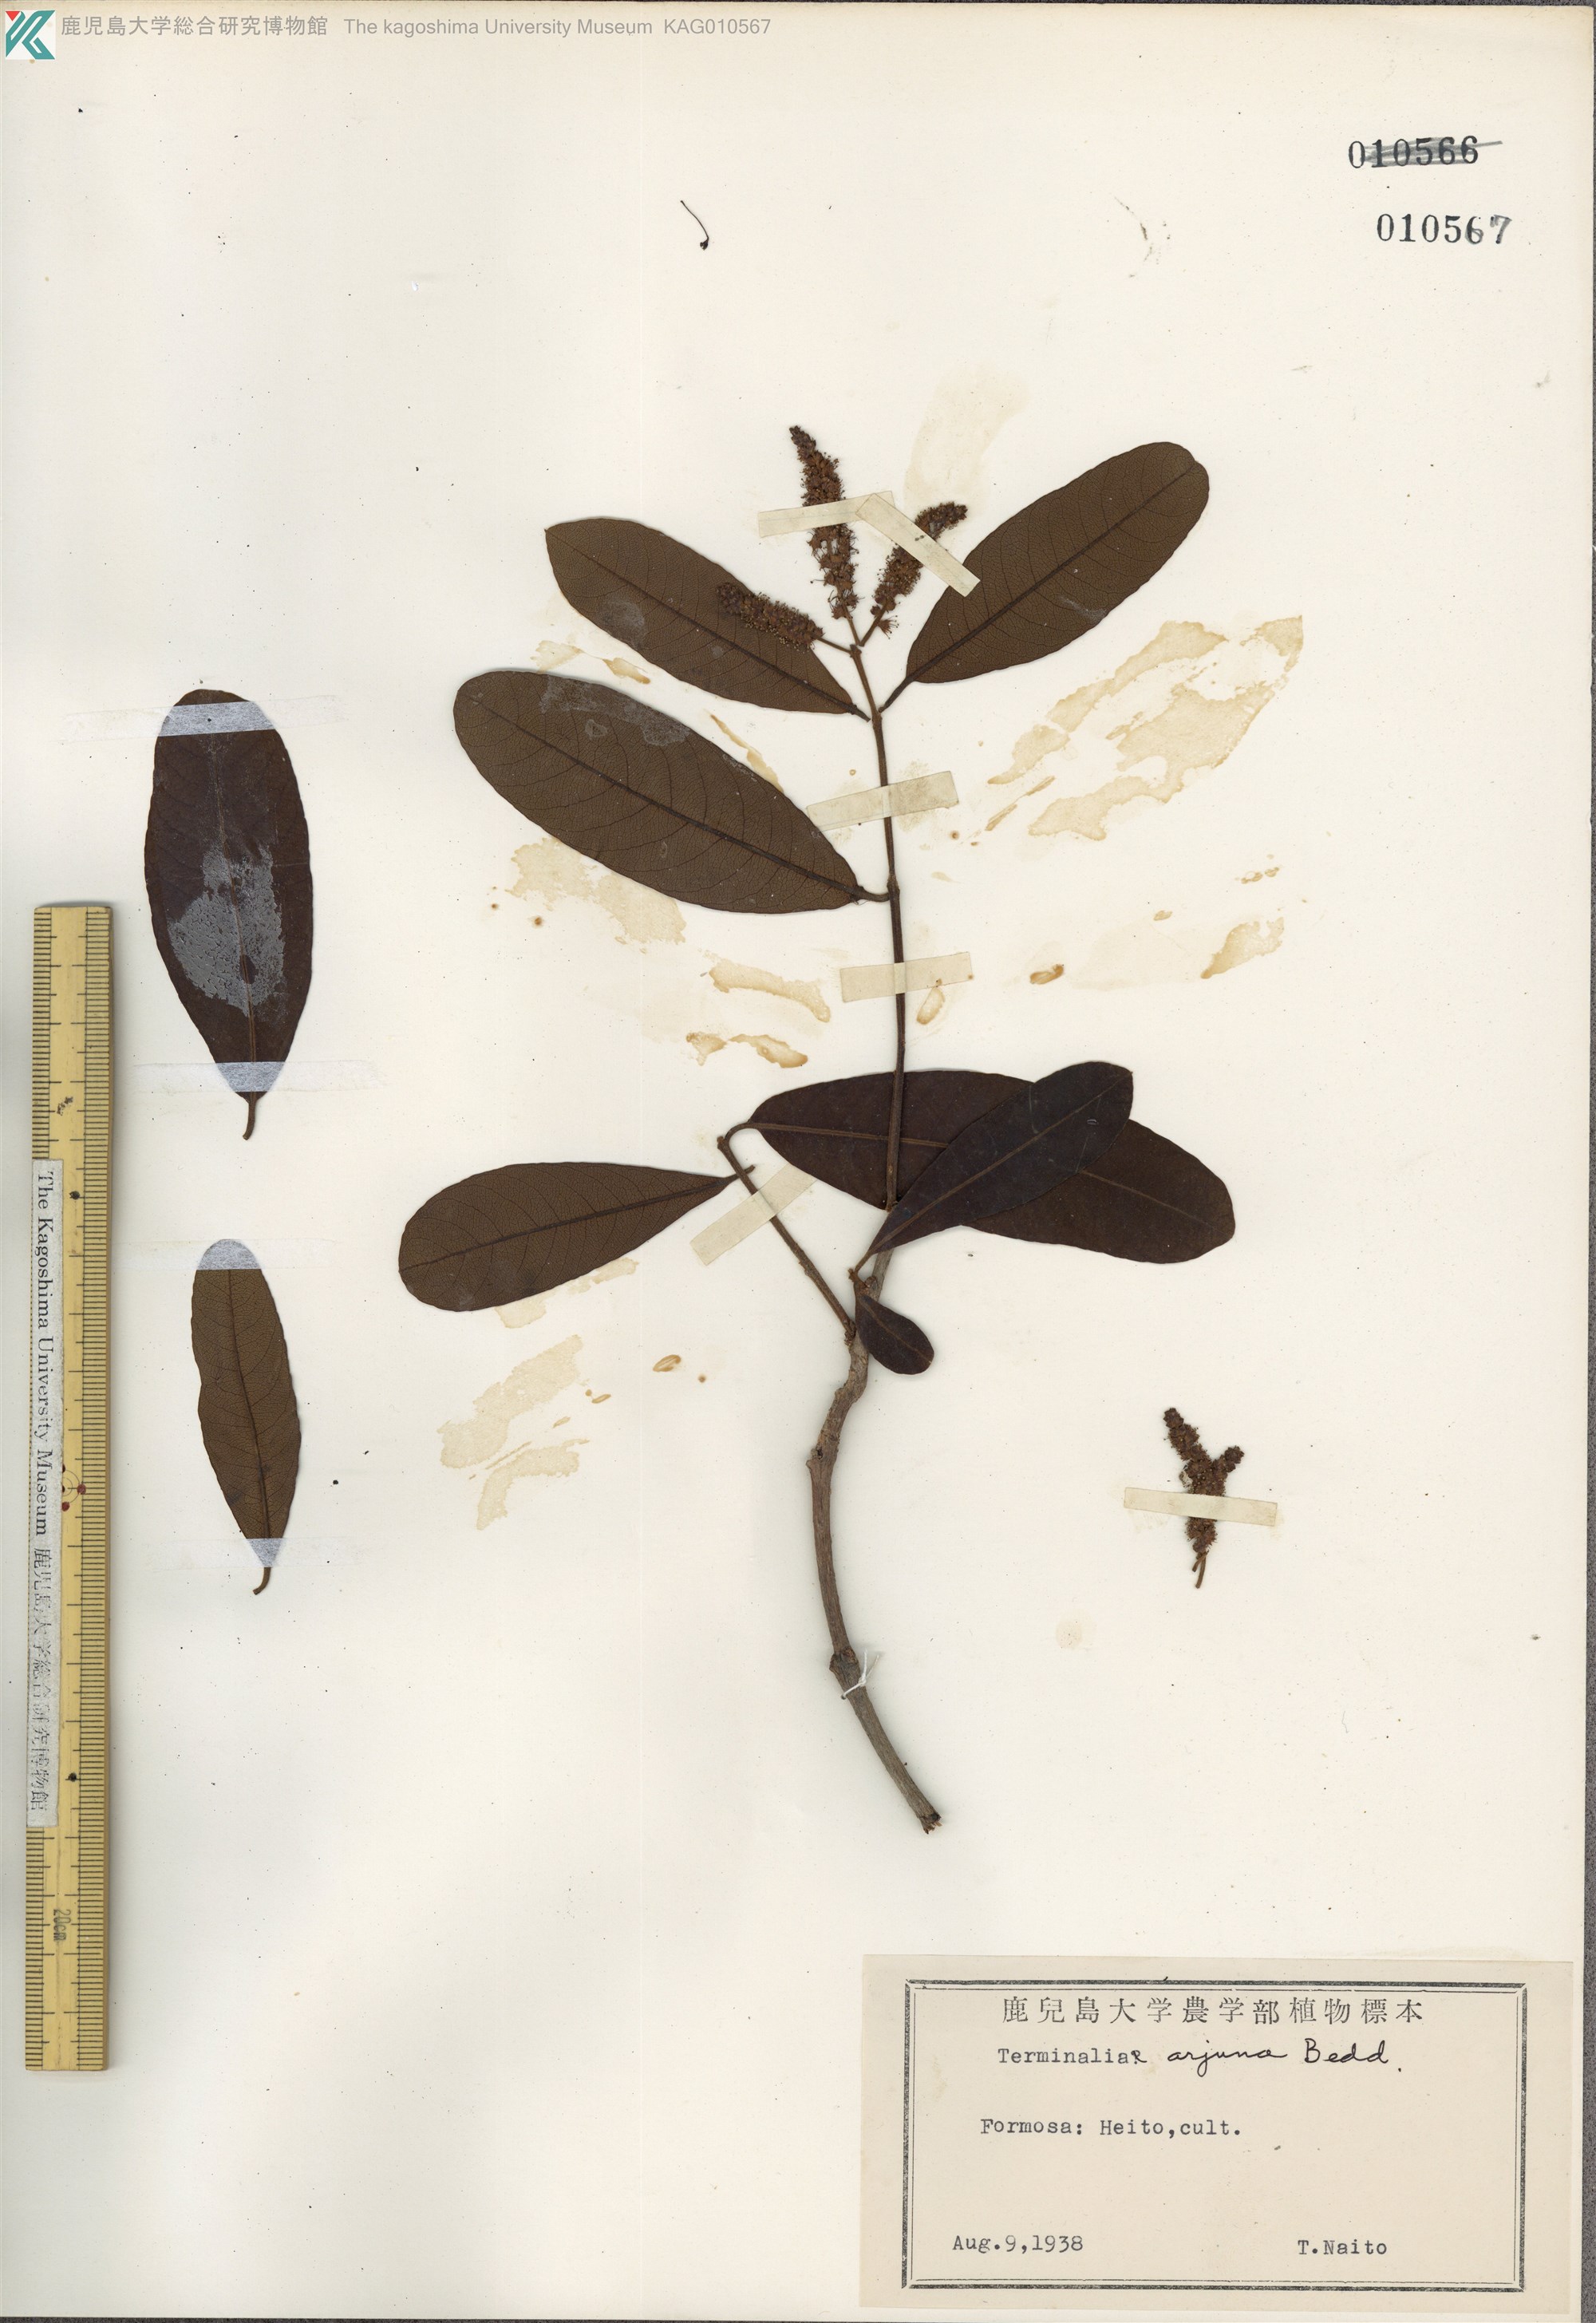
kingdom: Plantae
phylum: Tracheophyta
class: Magnoliopsida
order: Myrtales
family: Combretaceae
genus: Terminalia
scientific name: Terminalia arjuna
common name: Arjun
